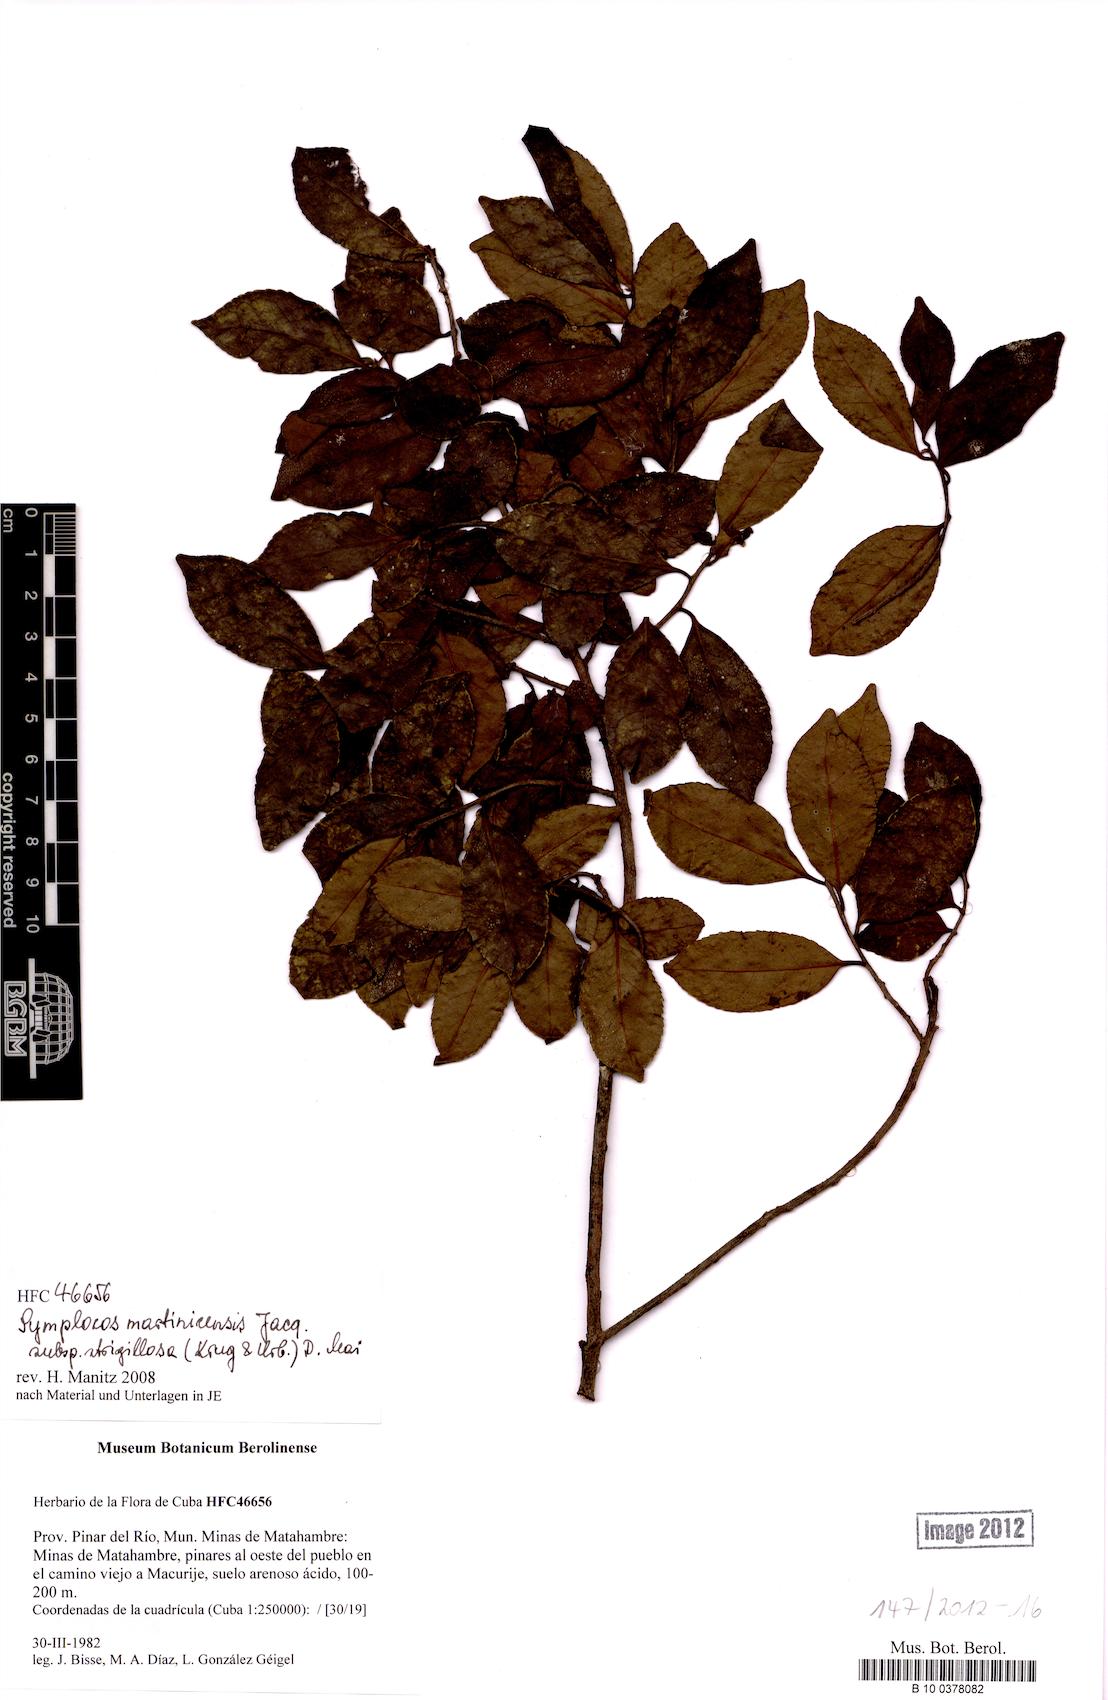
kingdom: Plantae
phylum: Tracheophyta
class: Magnoliopsida
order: Ericales
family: Symplocaceae
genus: Symplocos
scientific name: Symplocos jurgensenii
